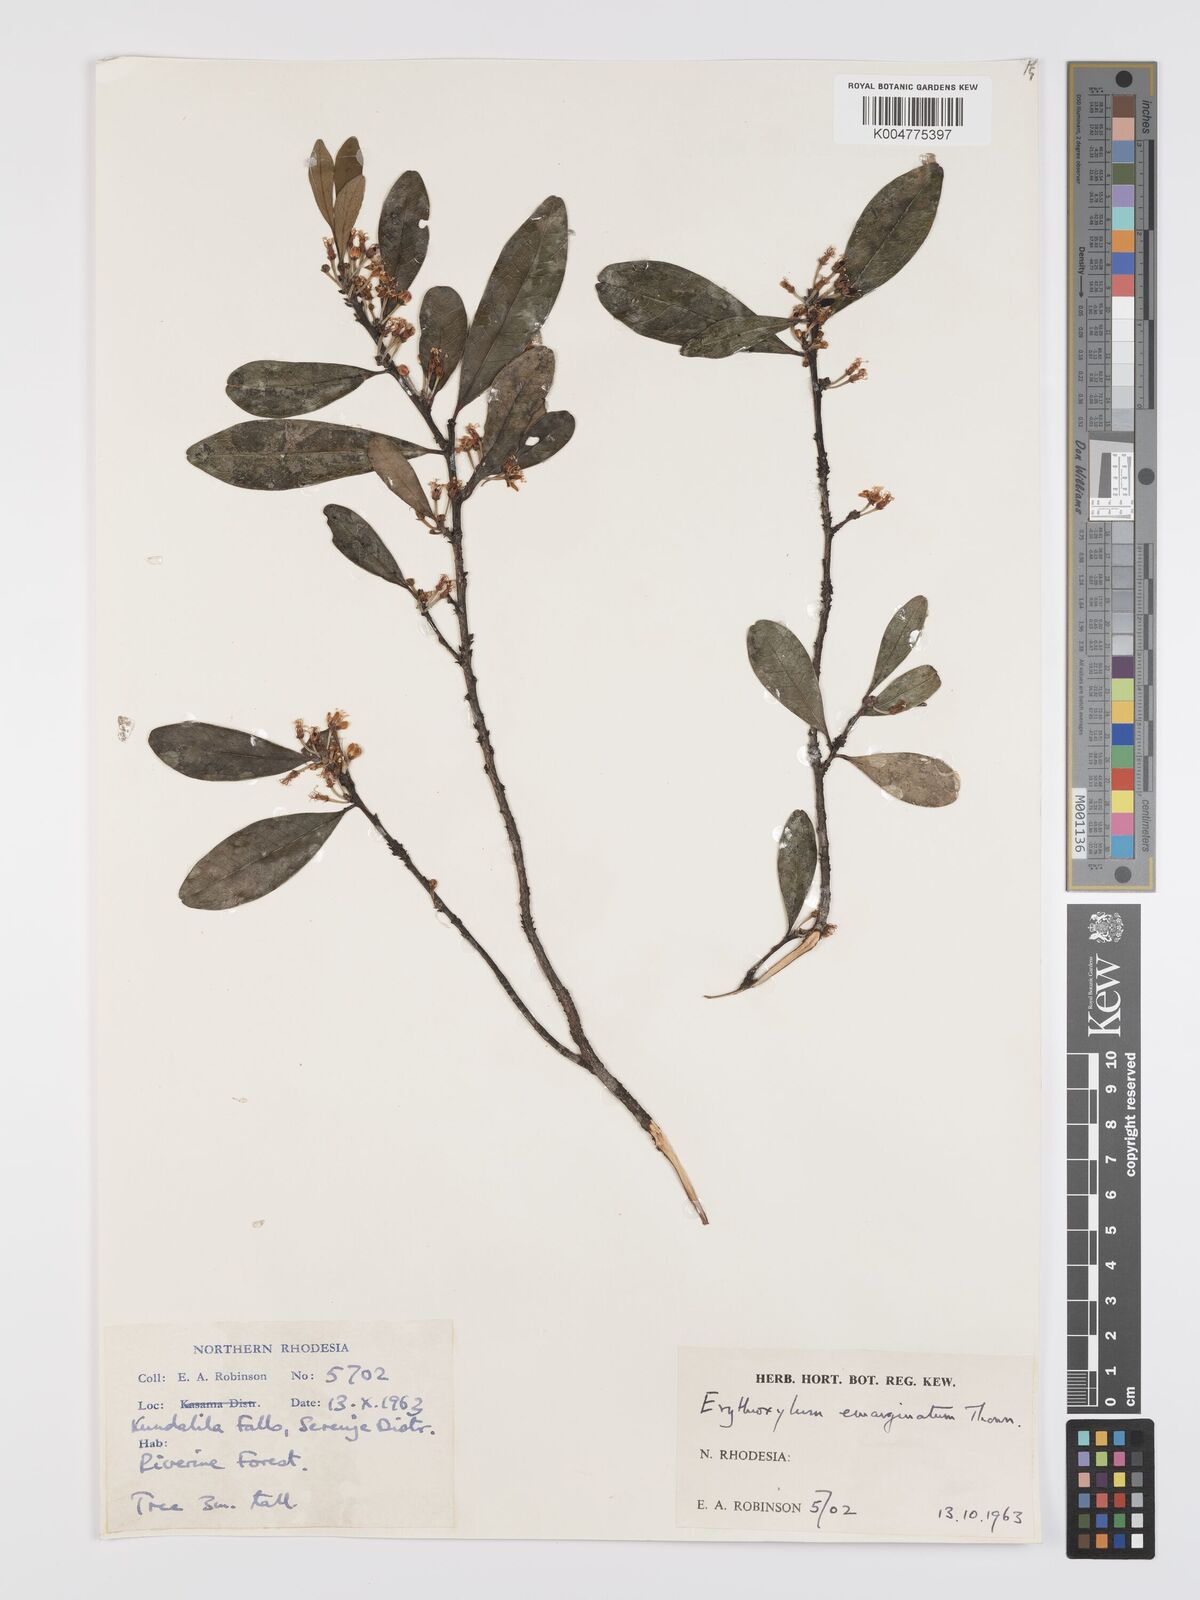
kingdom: Plantae
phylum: Tracheophyta
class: Magnoliopsida
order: Malpighiales
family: Erythroxylaceae
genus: Erythroxylum
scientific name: Erythroxylum emarginatum
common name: African coca-tree
